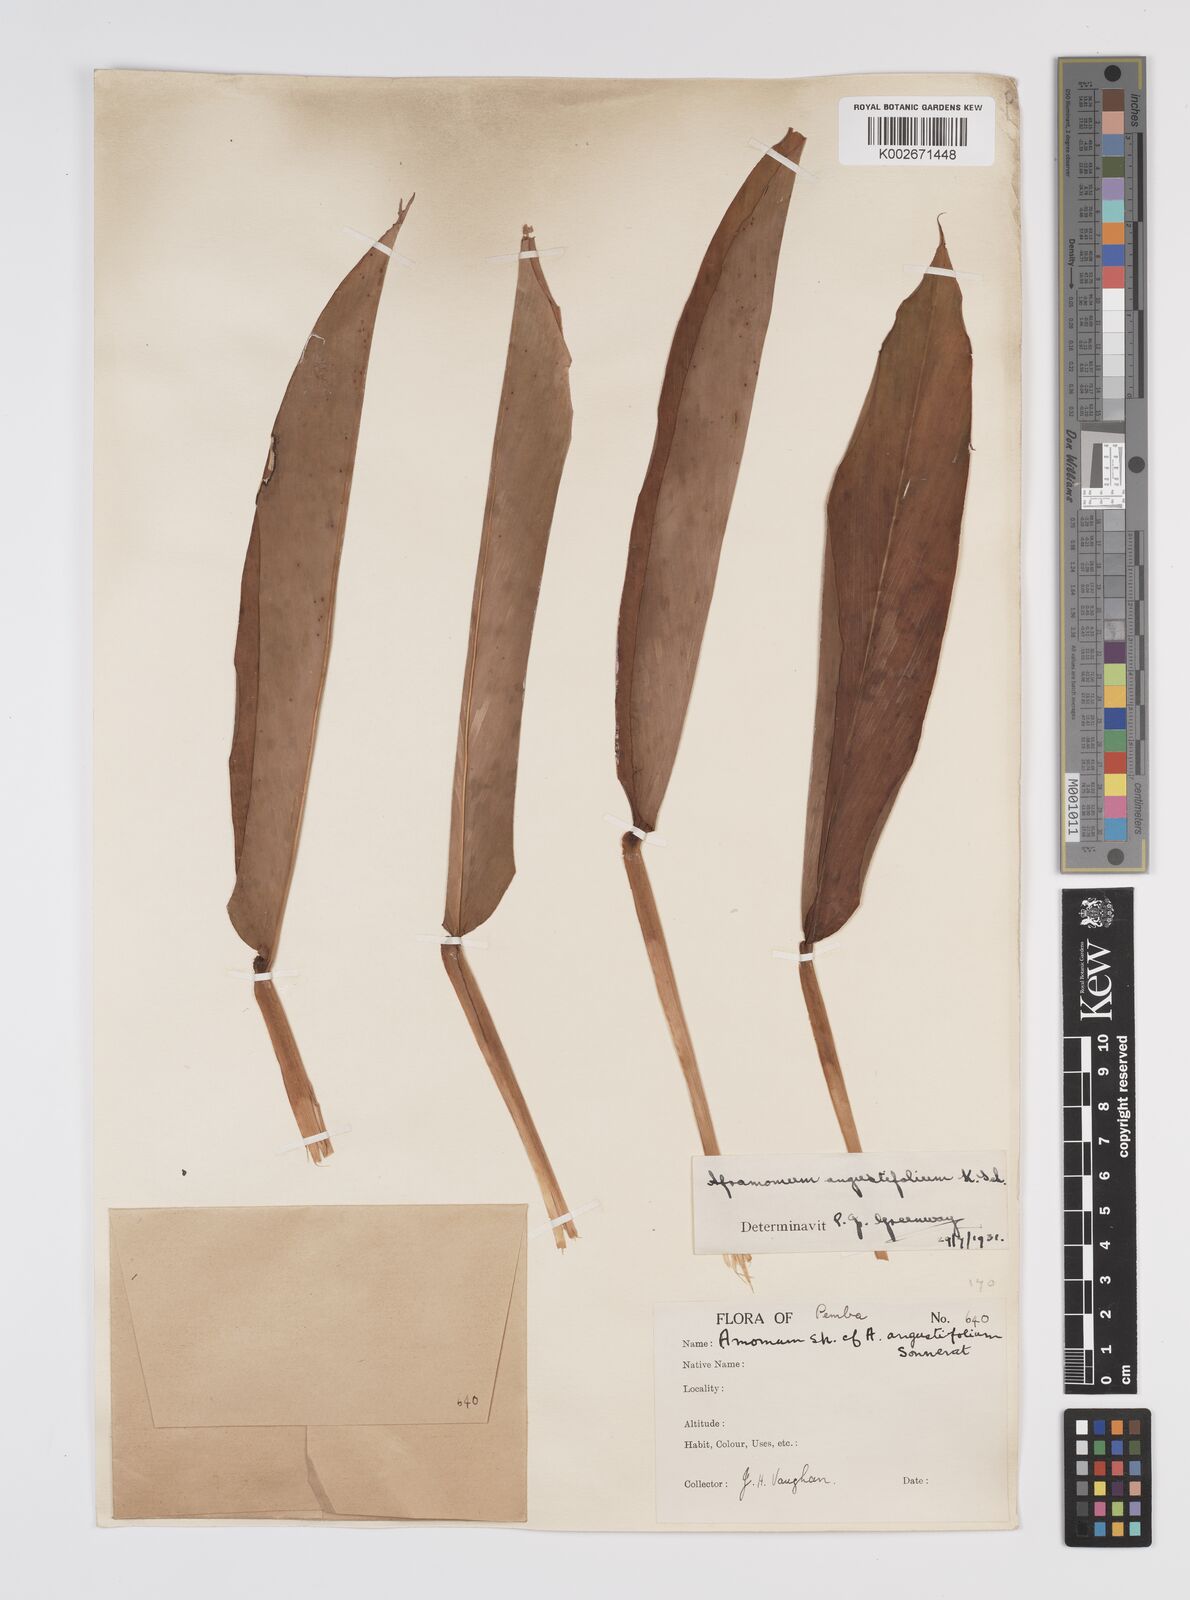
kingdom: Plantae
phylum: Tracheophyta
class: Liliopsida
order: Zingiberales
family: Zingiberaceae
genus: Aframomum
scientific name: Aframomum angustifolium
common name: Guinea grains
